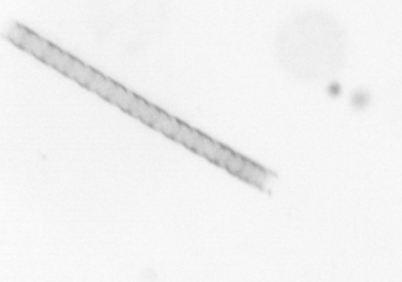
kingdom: Chromista
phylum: Ochrophyta
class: Bacillariophyceae
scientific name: Bacillariophyceae
